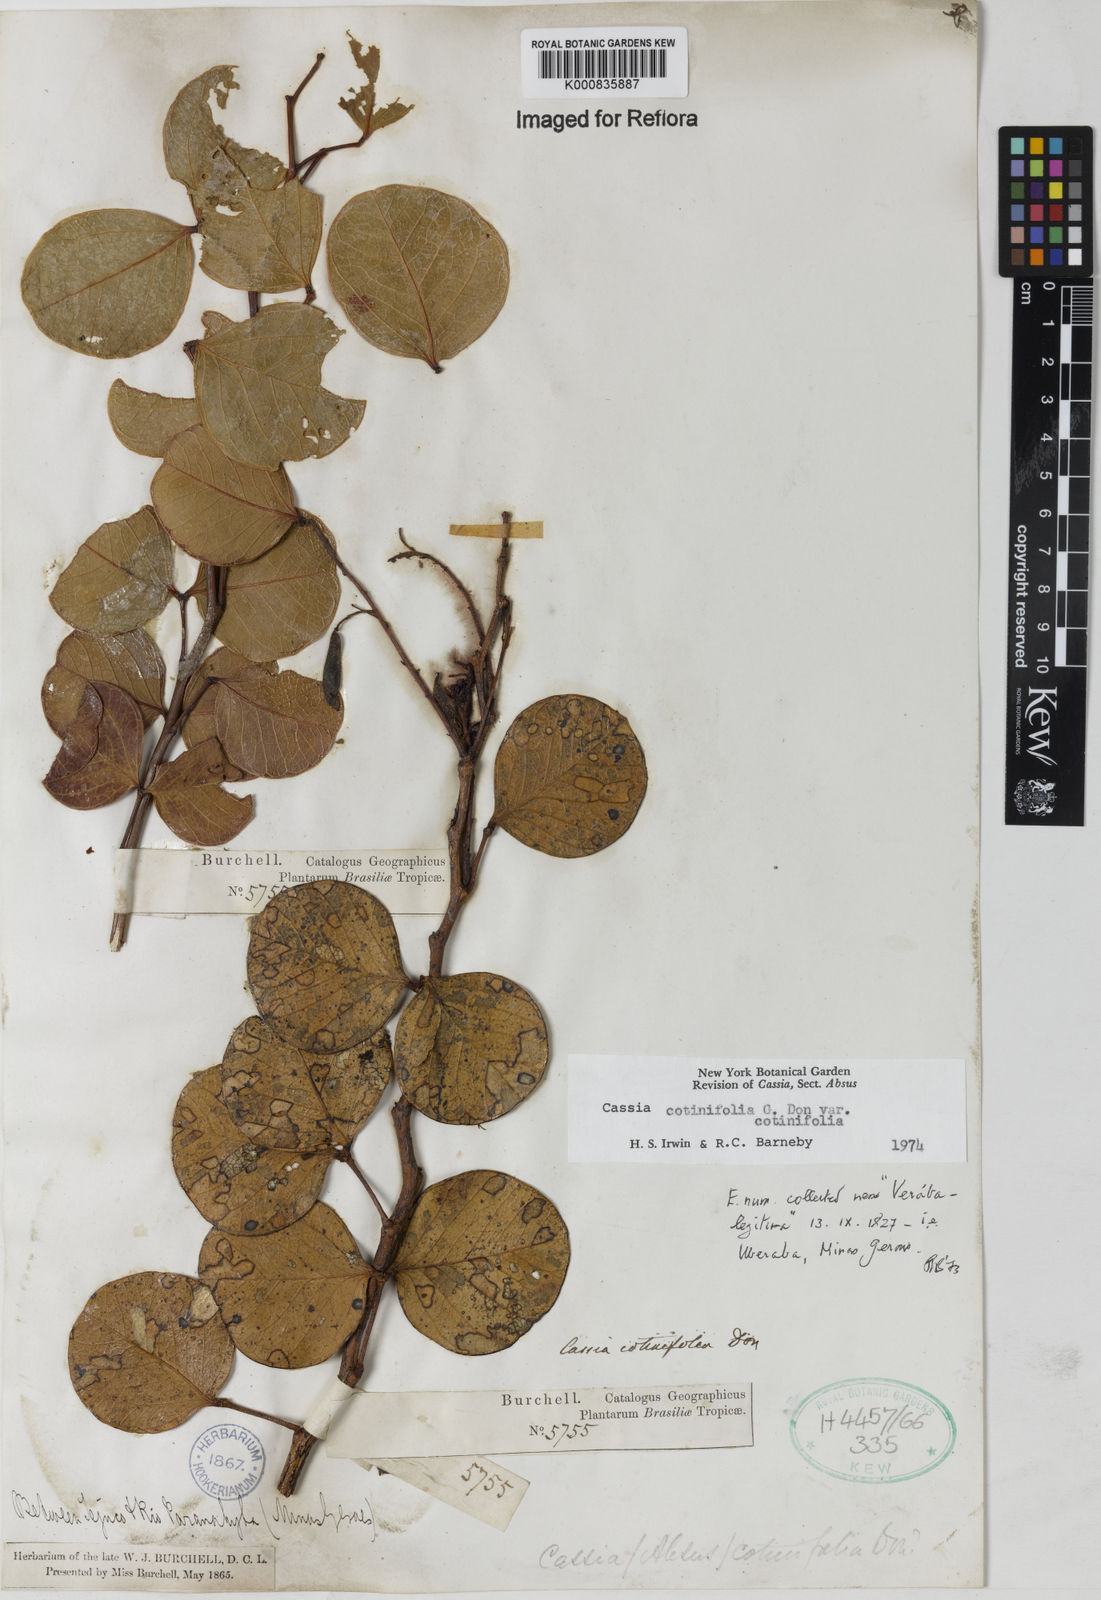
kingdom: Plantae
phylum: Tracheophyta
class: Magnoliopsida
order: Fabales
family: Fabaceae
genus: Chamaecrista
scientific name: Chamaecrista cotinifolia
